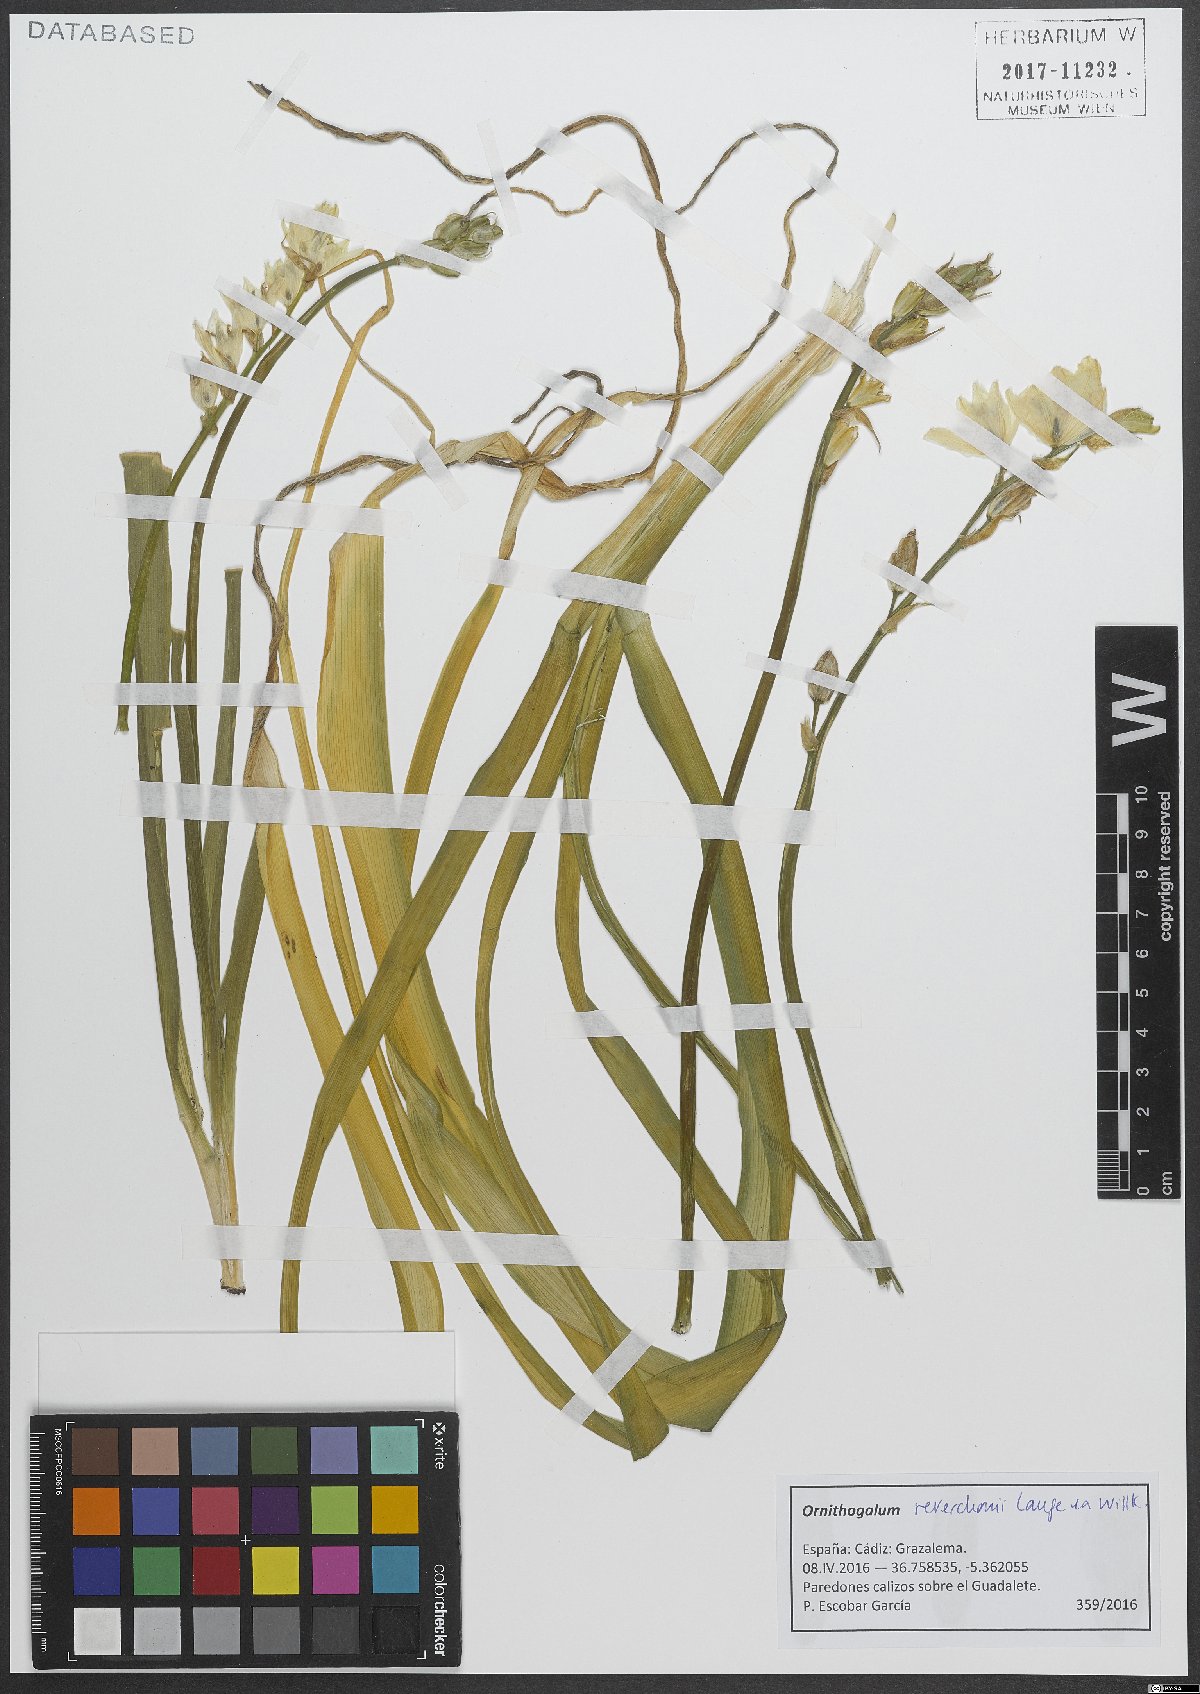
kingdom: Plantae
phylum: Tracheophyta
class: Liliopsida
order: Asparagales
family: Asparagaceae
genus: Ornithogalum
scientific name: Ornithogalum reverchonii
